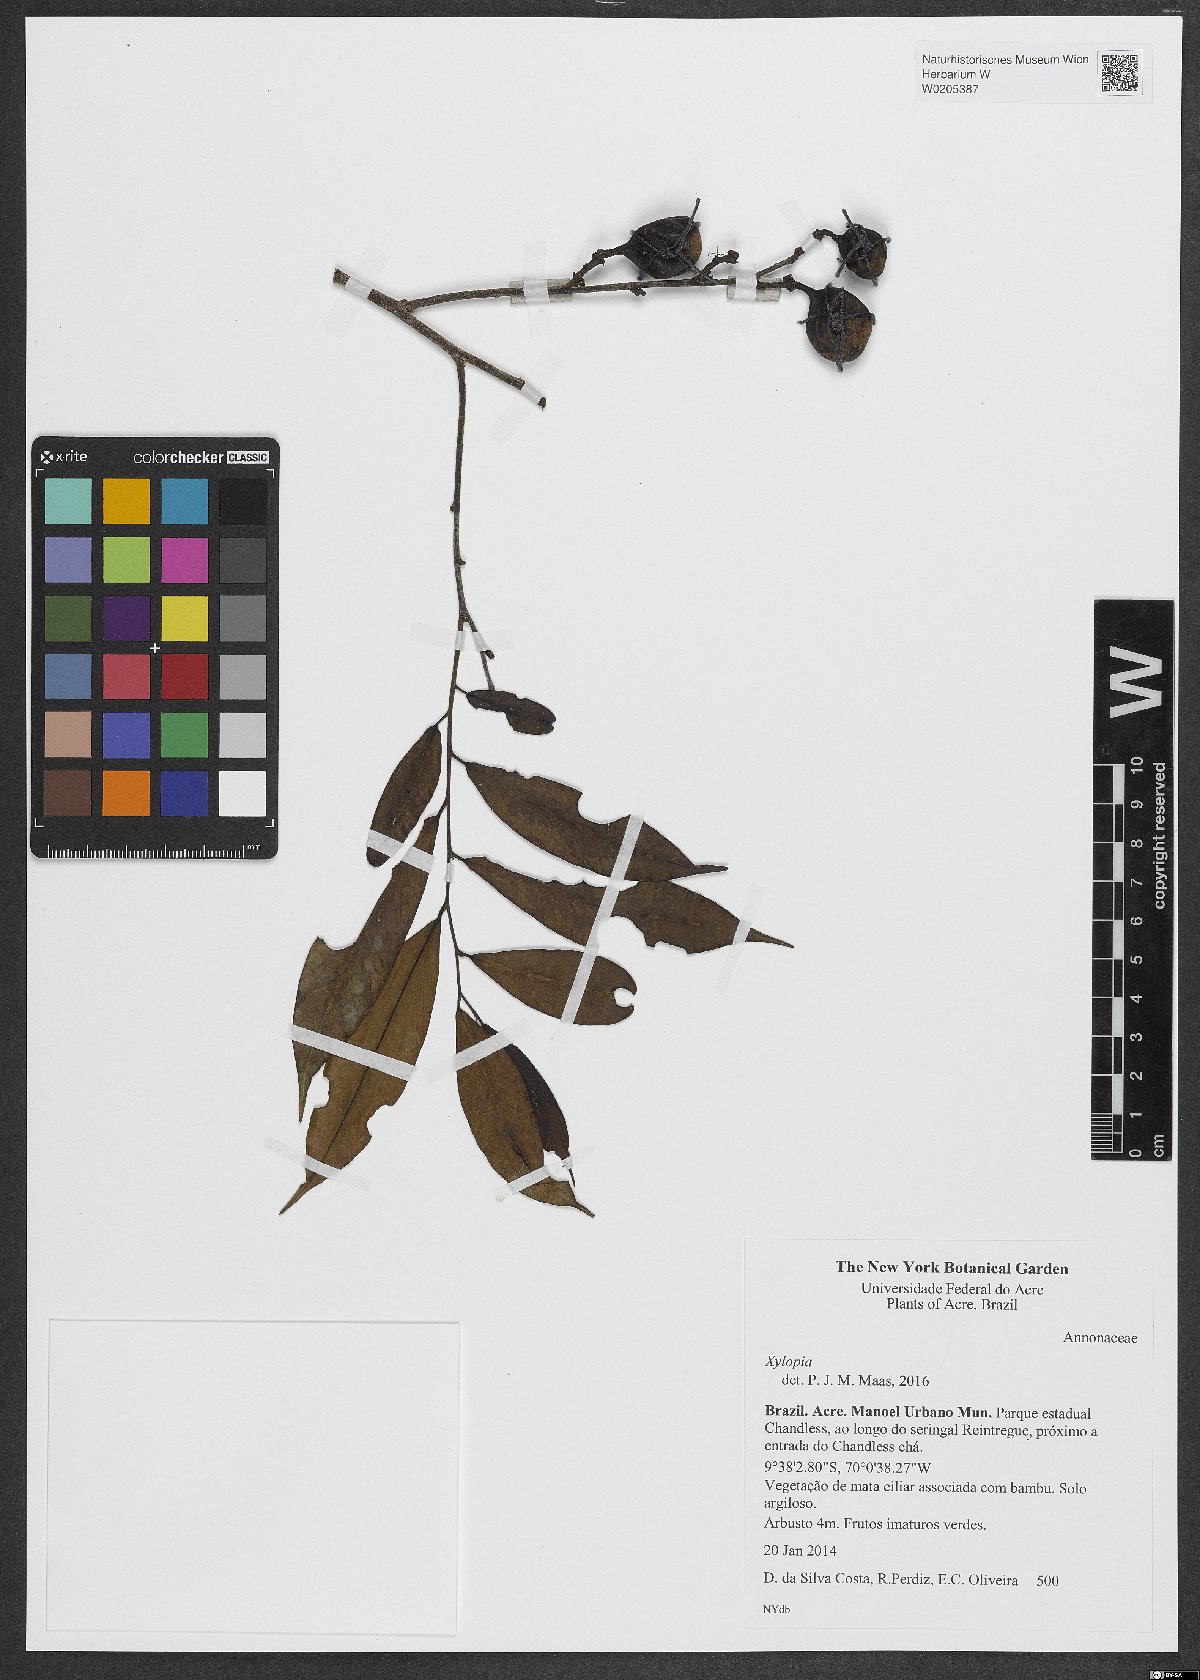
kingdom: Plantae
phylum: Tracheophyta
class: Magnoliopsida
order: Magnoliales
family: Annonaceae
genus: Xylopia
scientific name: Xylopia
